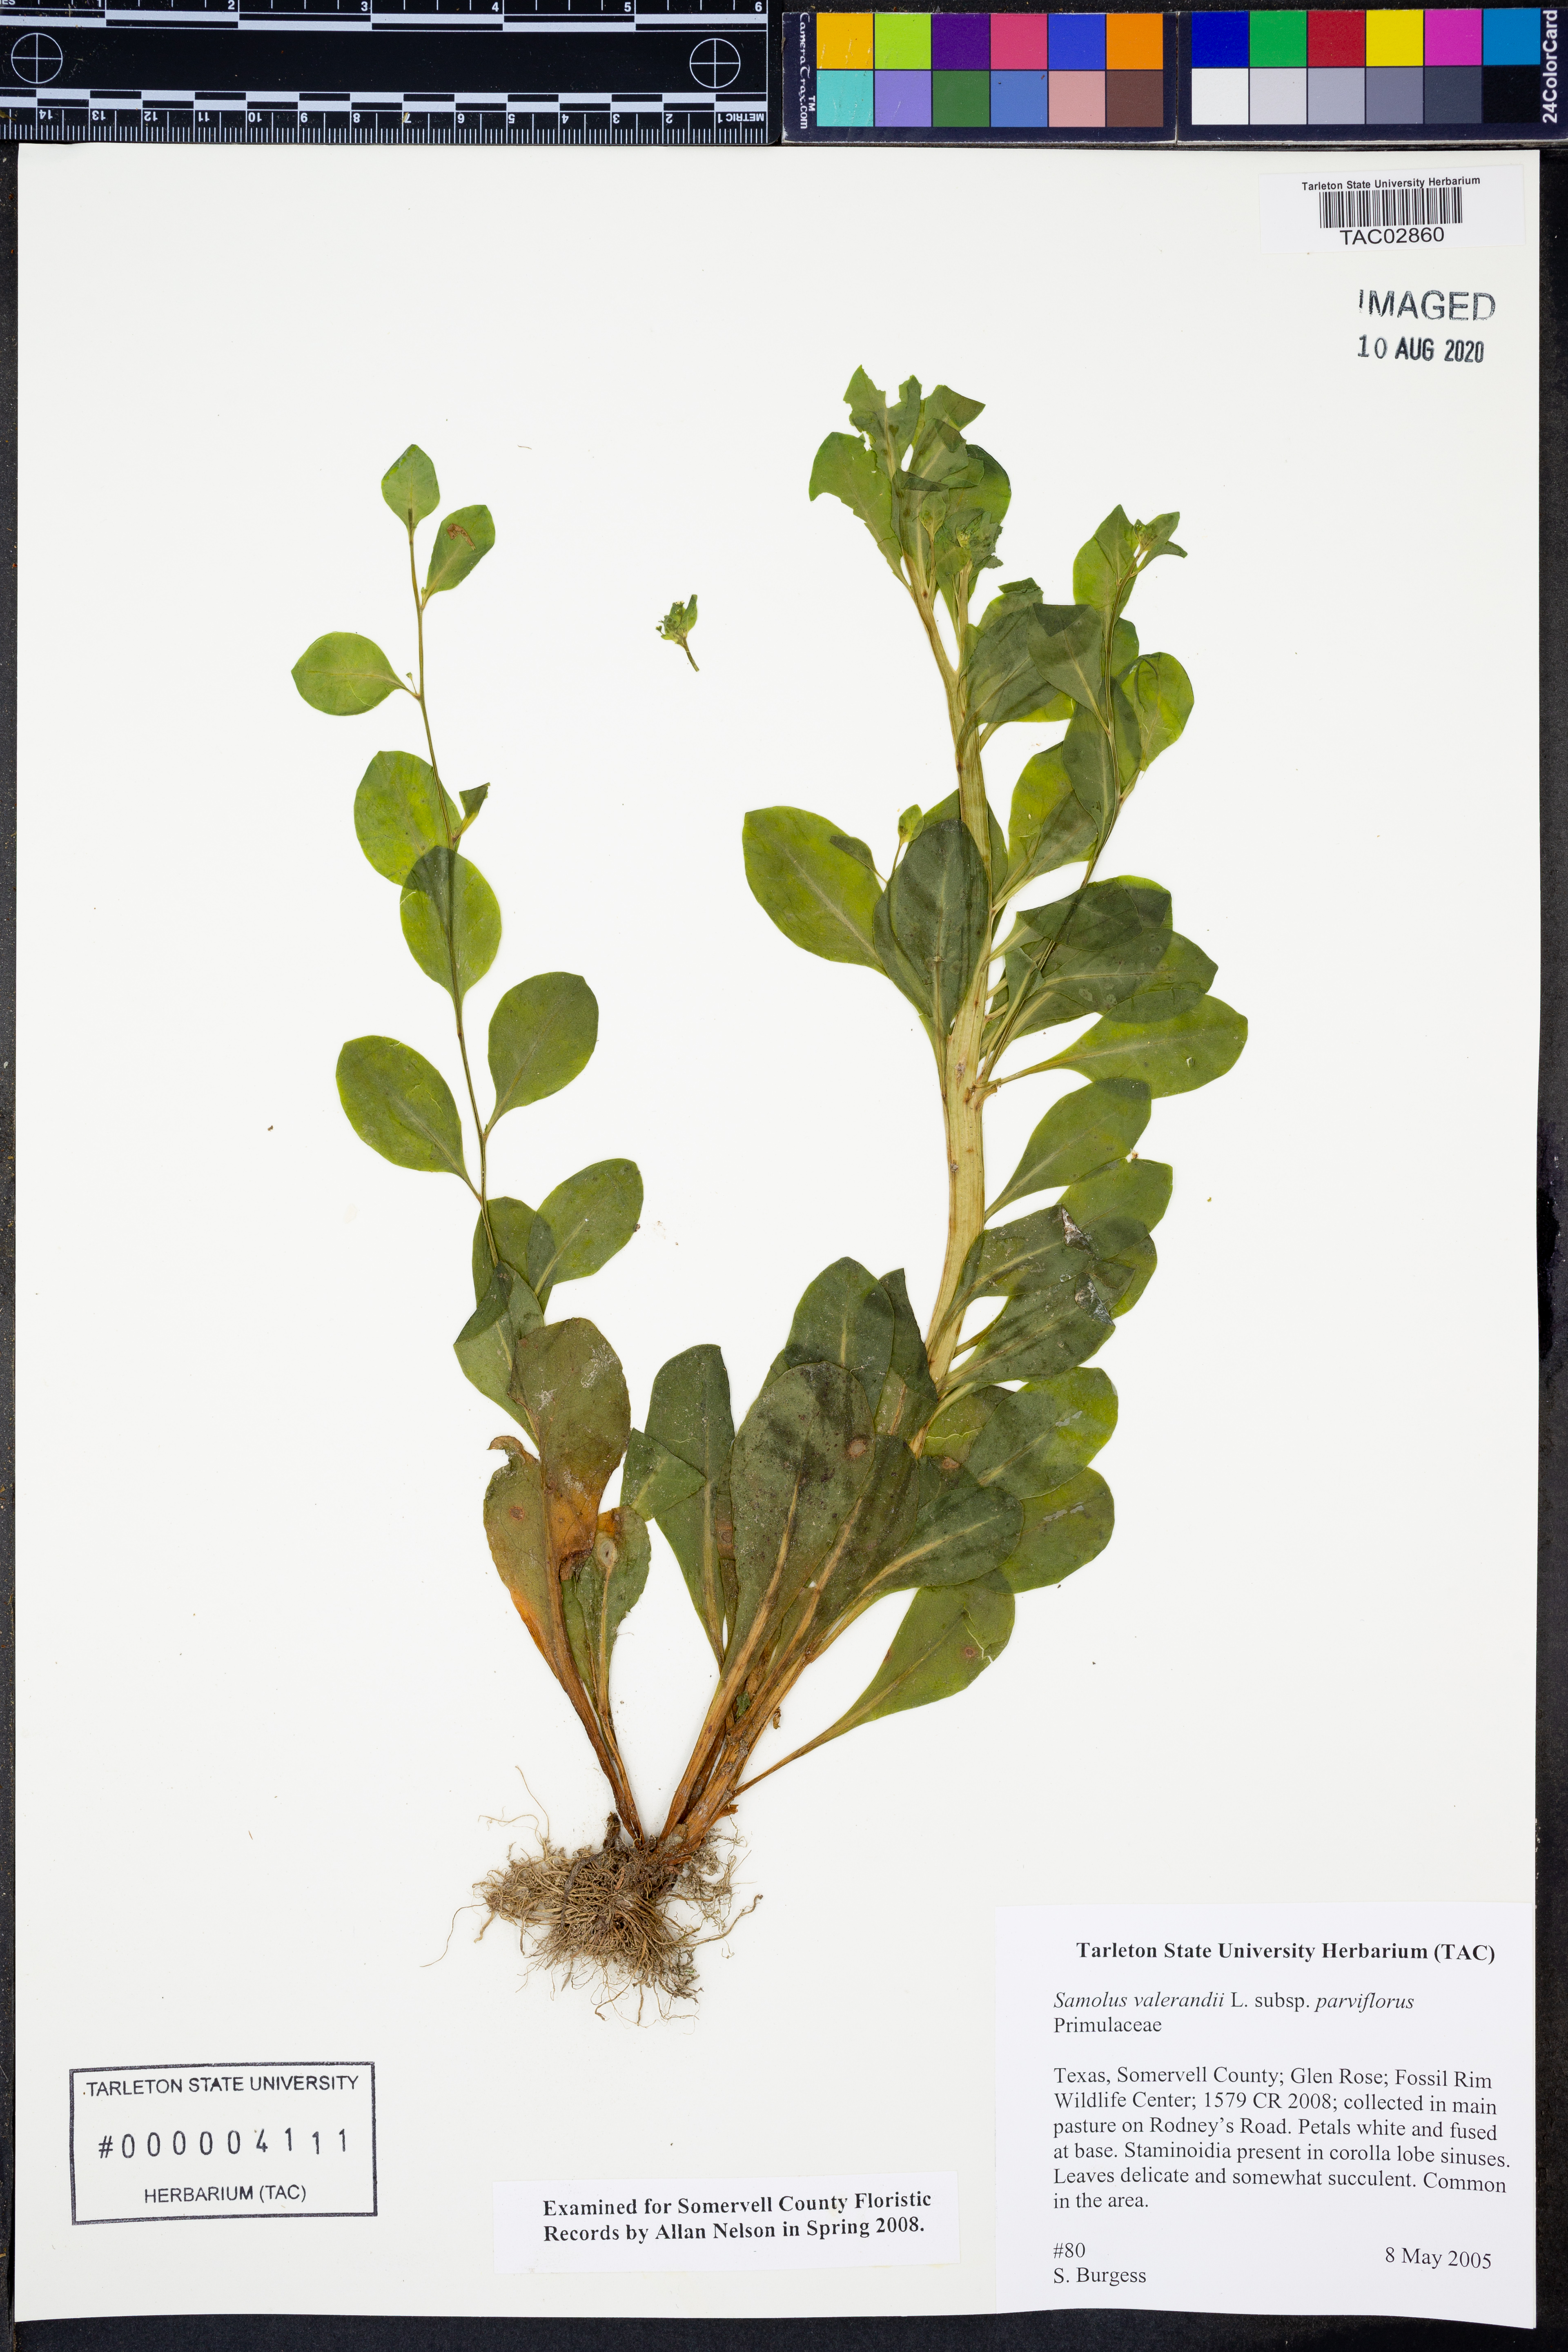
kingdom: Plantae
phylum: Tracheophyta
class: Magnoliopsida
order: Ericales
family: Primulaceae
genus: Samolus
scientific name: Samolus parviflorus
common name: False water pimpernel
